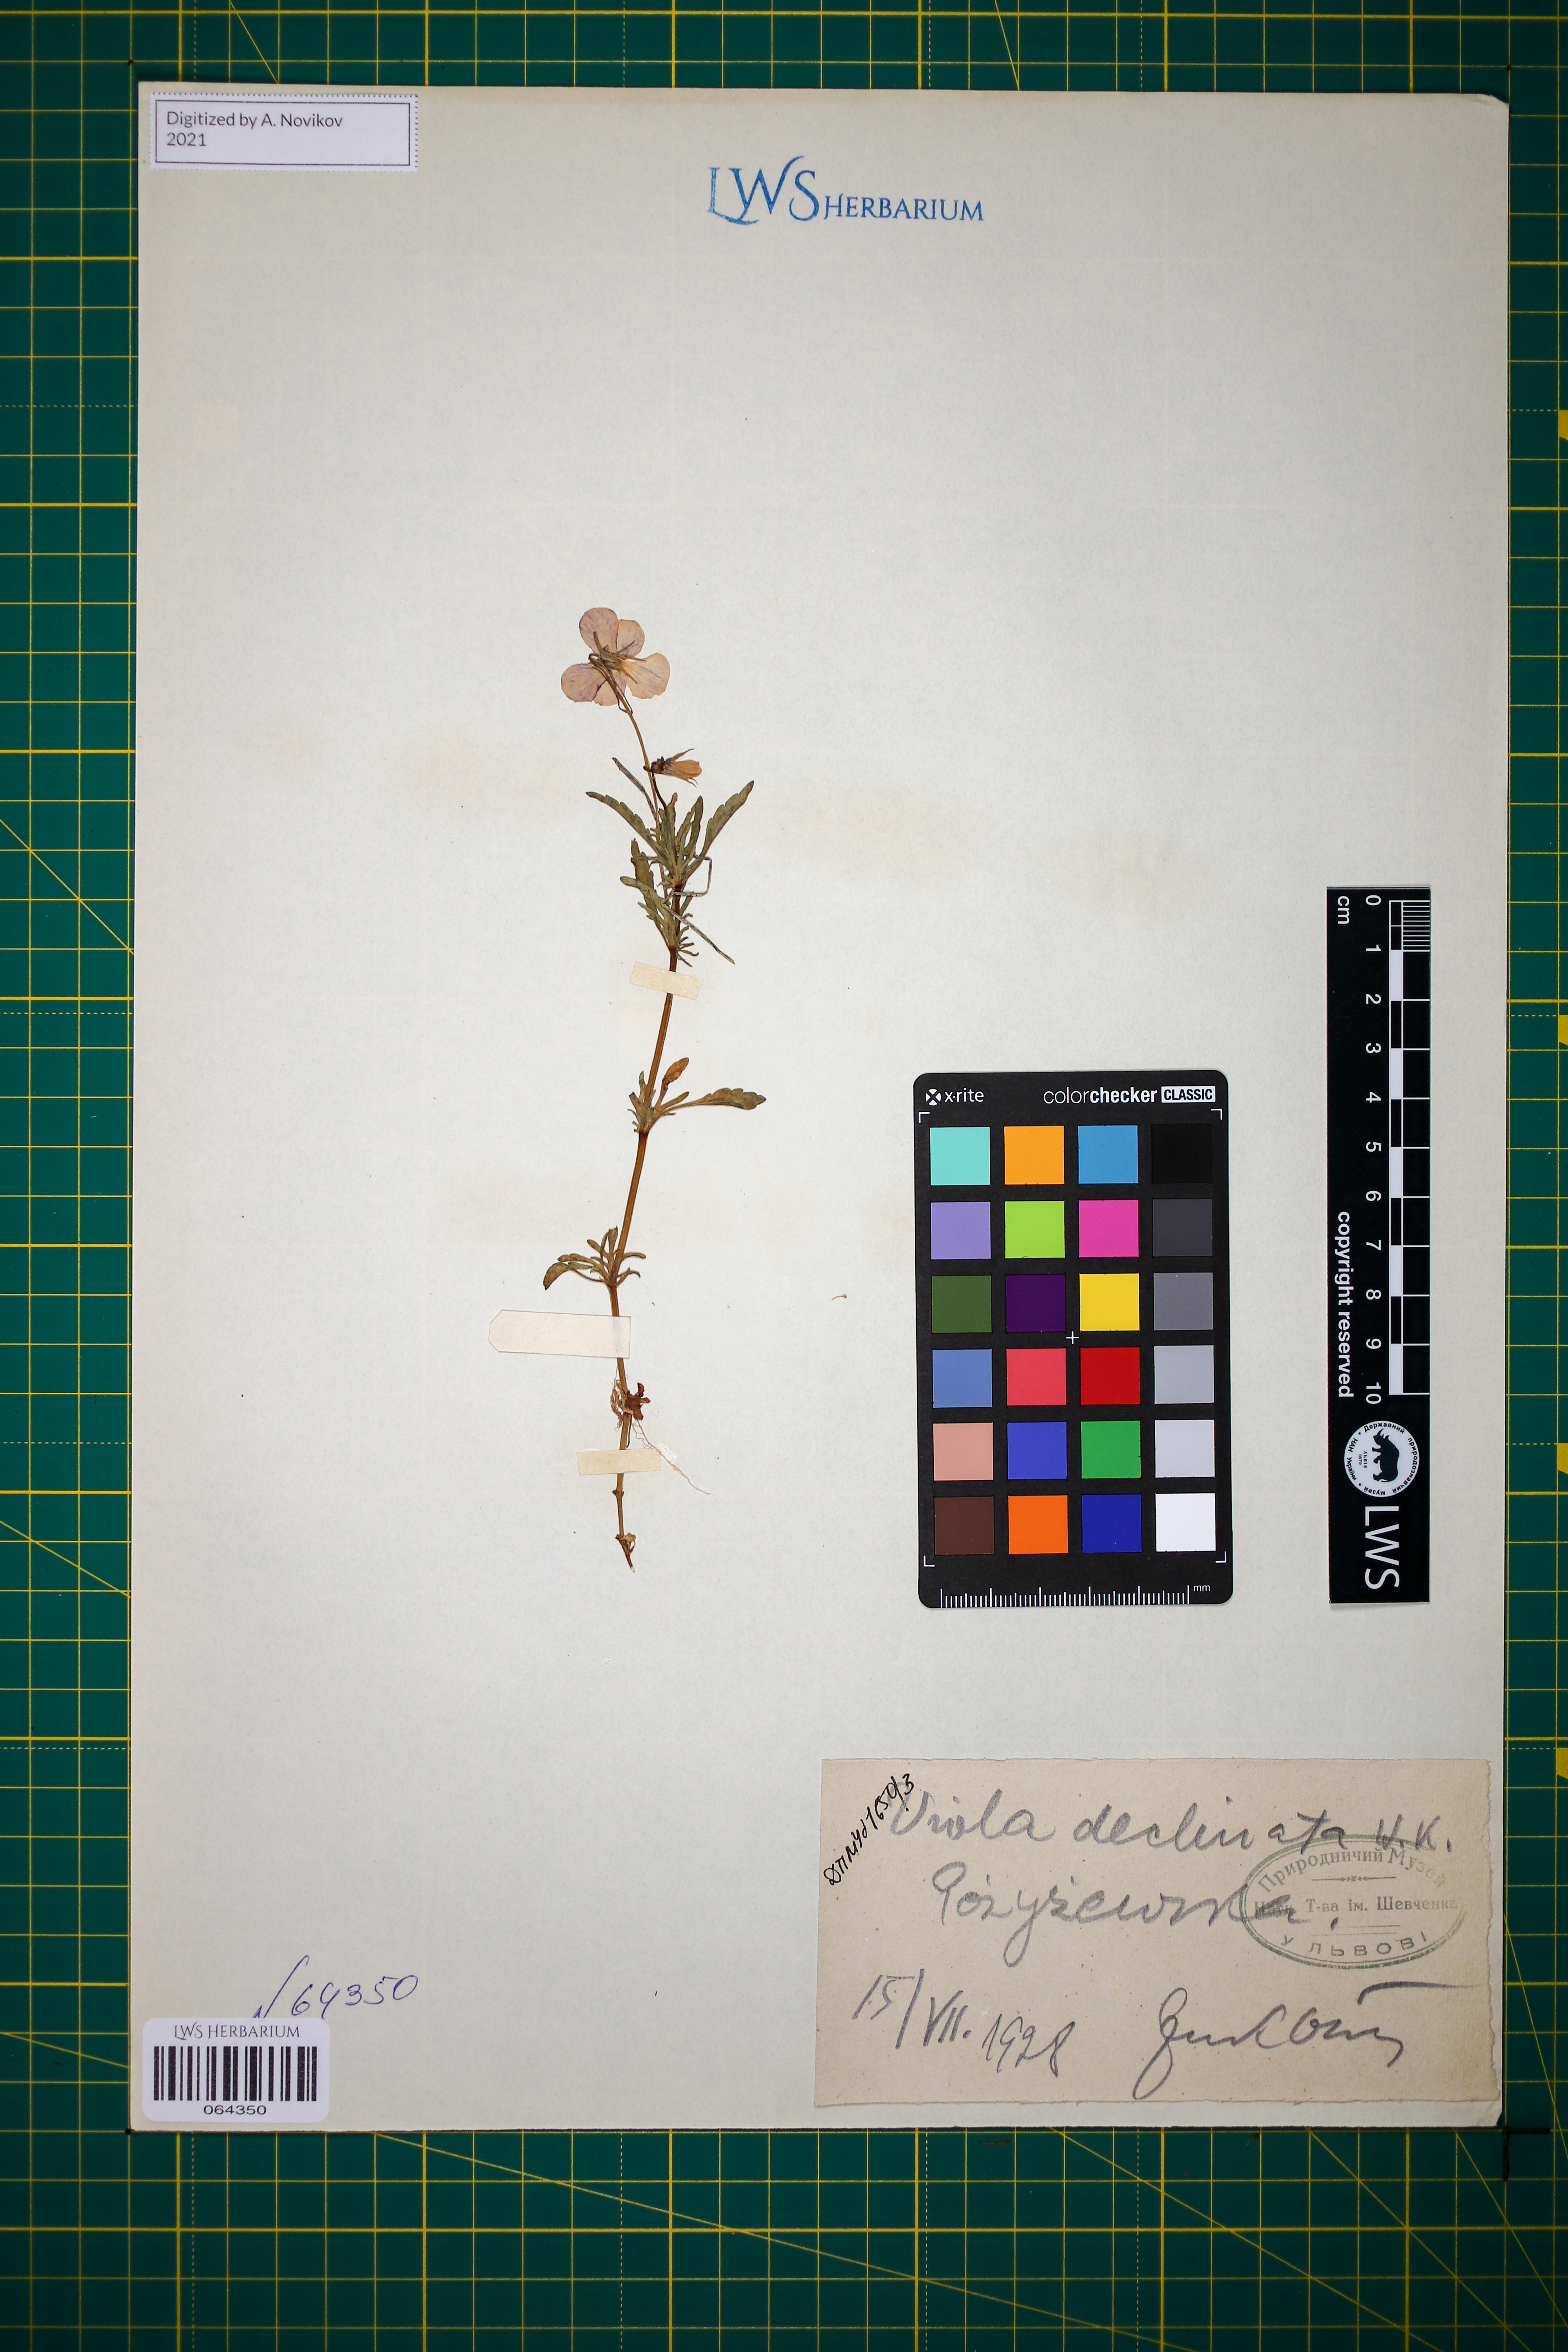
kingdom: Plantae
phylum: Tracheophyta
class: Magnoliopsida
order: Malpighiales
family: Violaceae
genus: Viola
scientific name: Viola declinata
